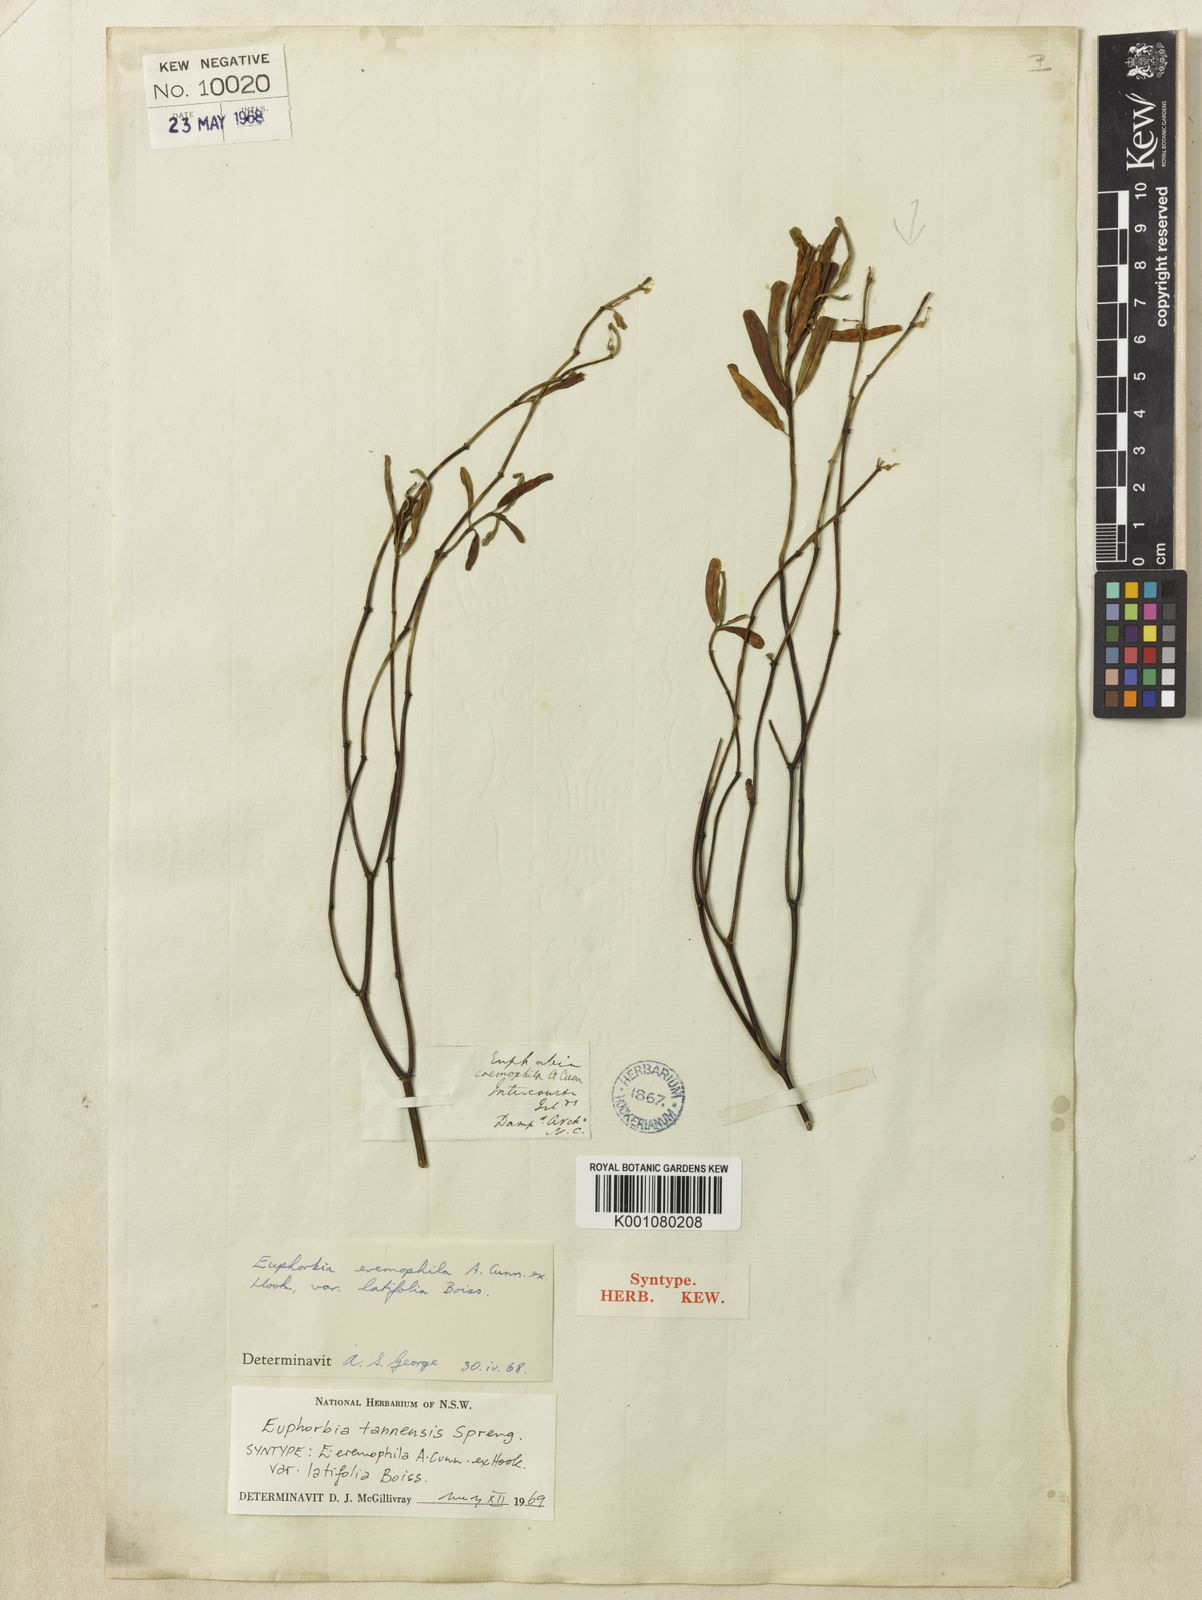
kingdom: Plantae
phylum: Tracheophyta
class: Magnoliopsida
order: Malpighiales
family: Euphorbiaceae
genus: Euphorbia
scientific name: Euphorbia
